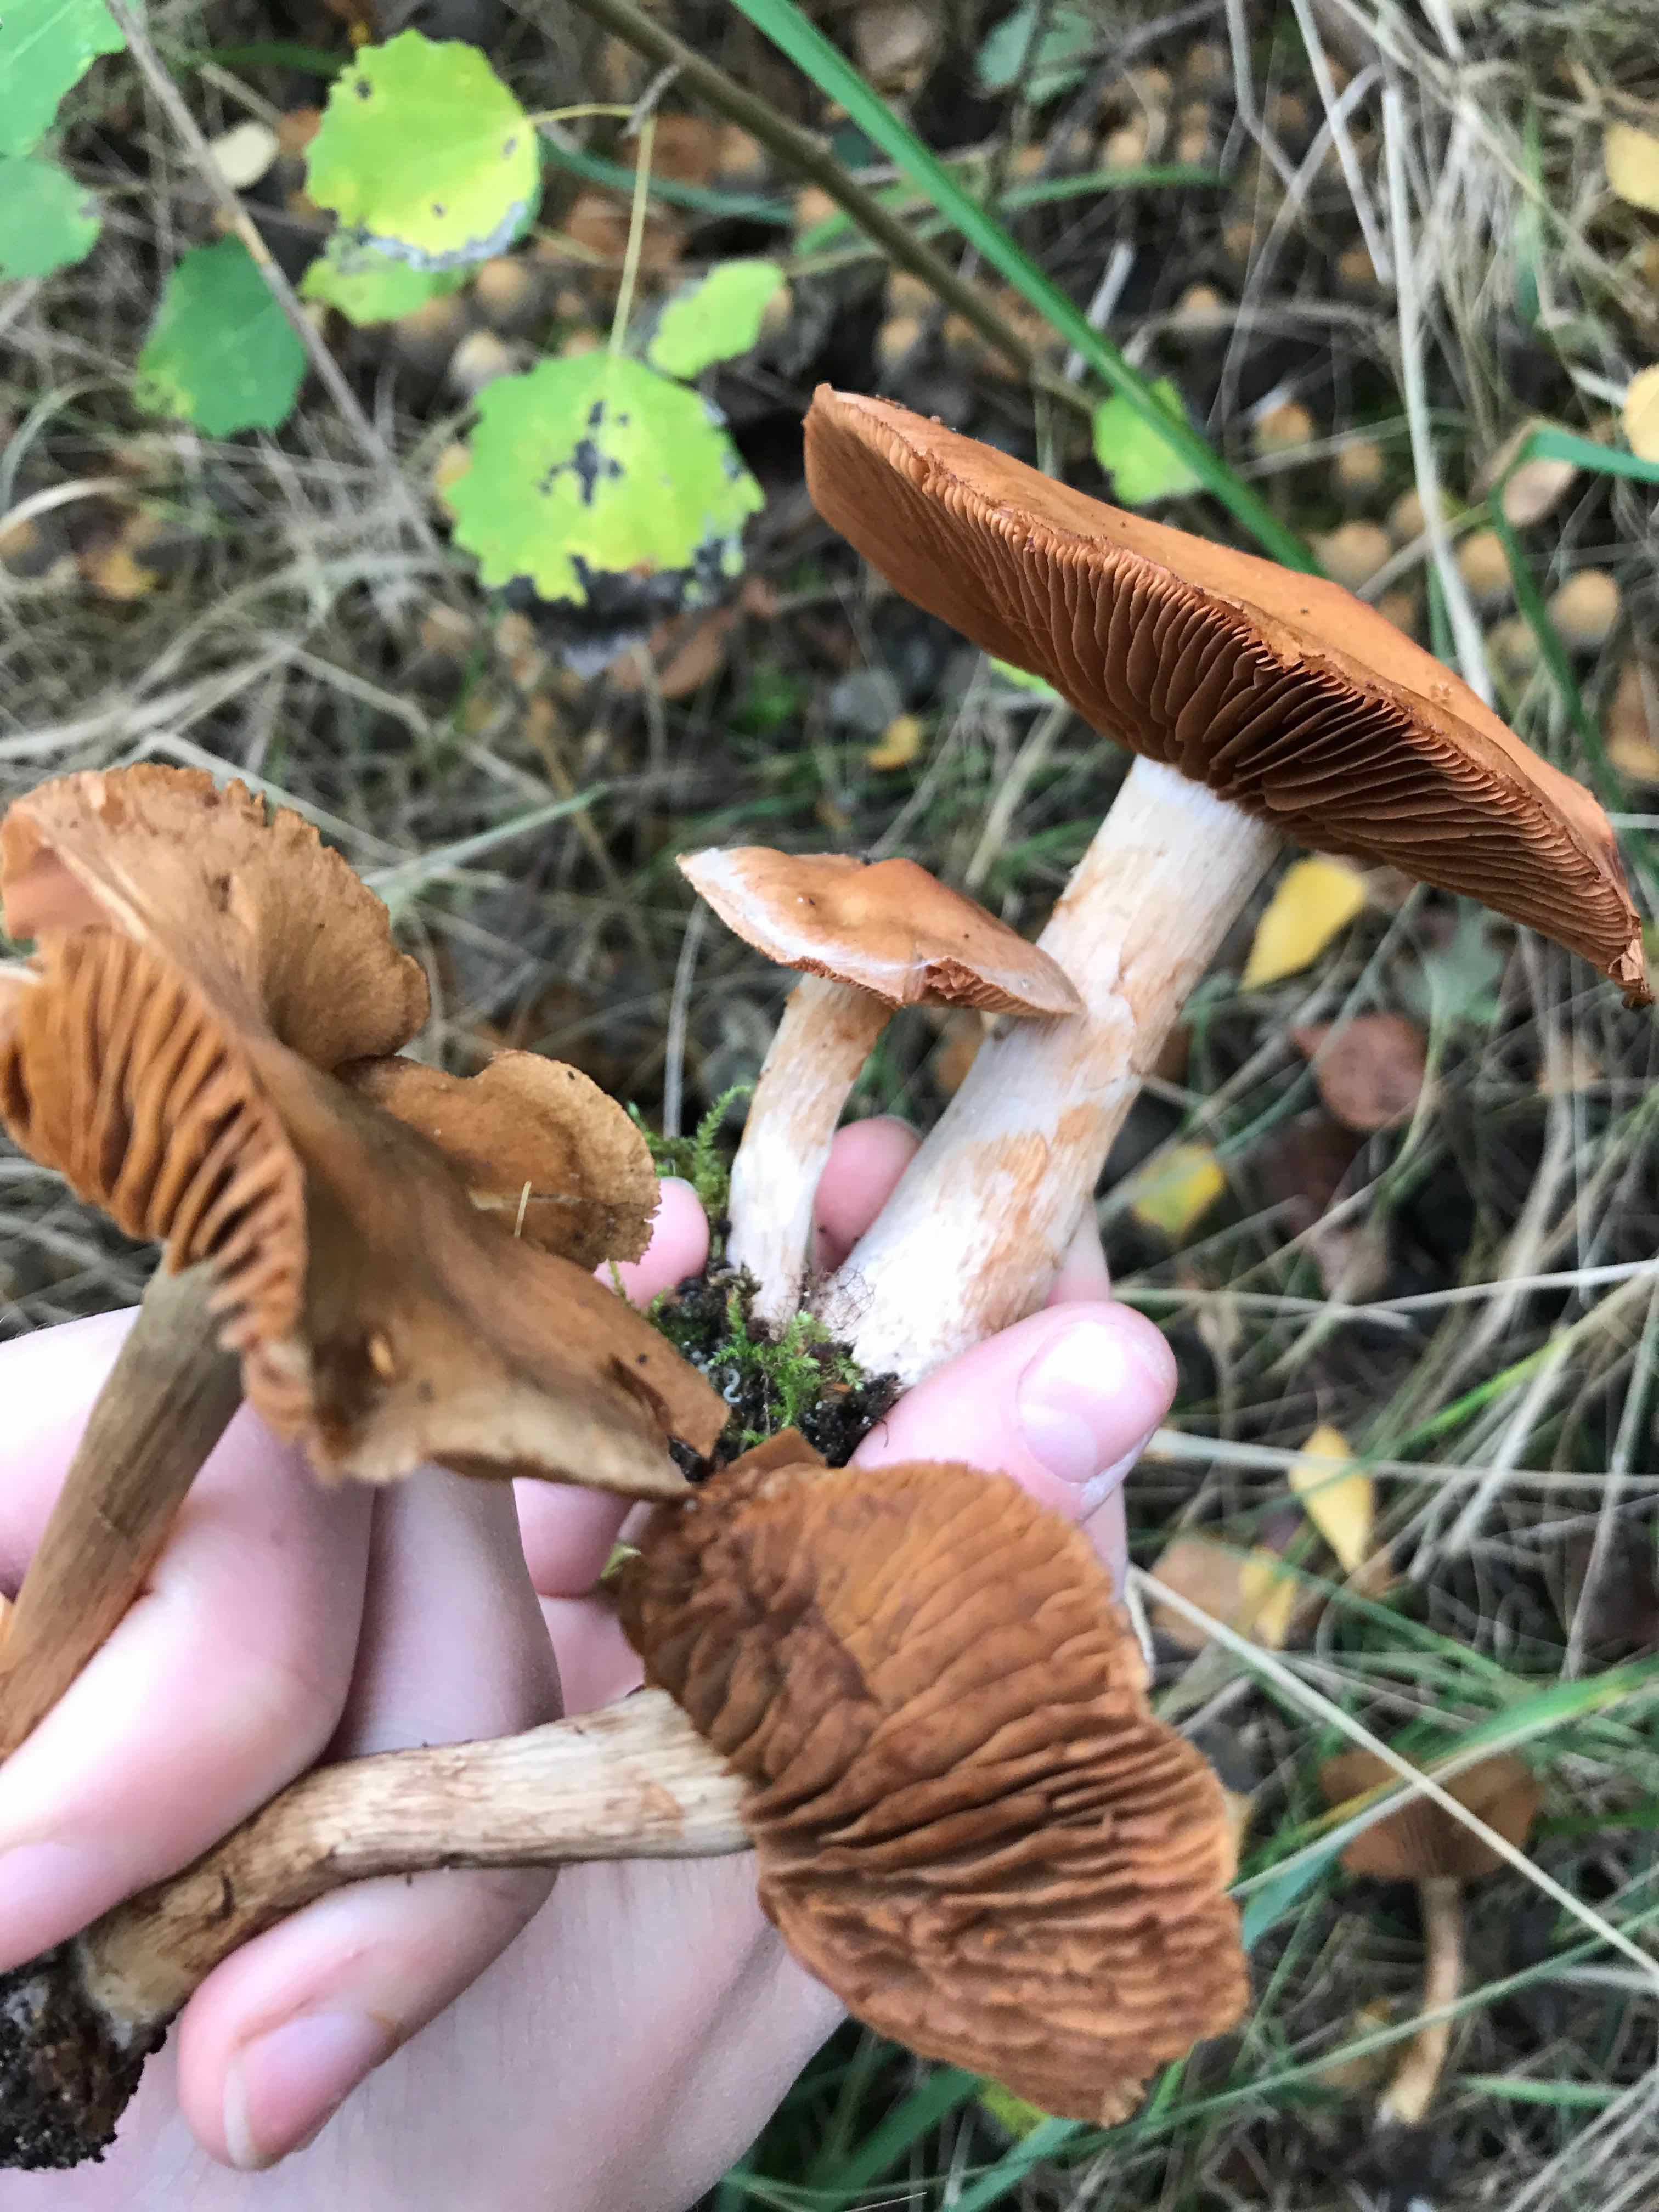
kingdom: Fungi
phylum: Basidiomycota
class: Agaricomycetes
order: Agaricales
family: Cortinariaceae
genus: Cortinarius
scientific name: Cortinarius
